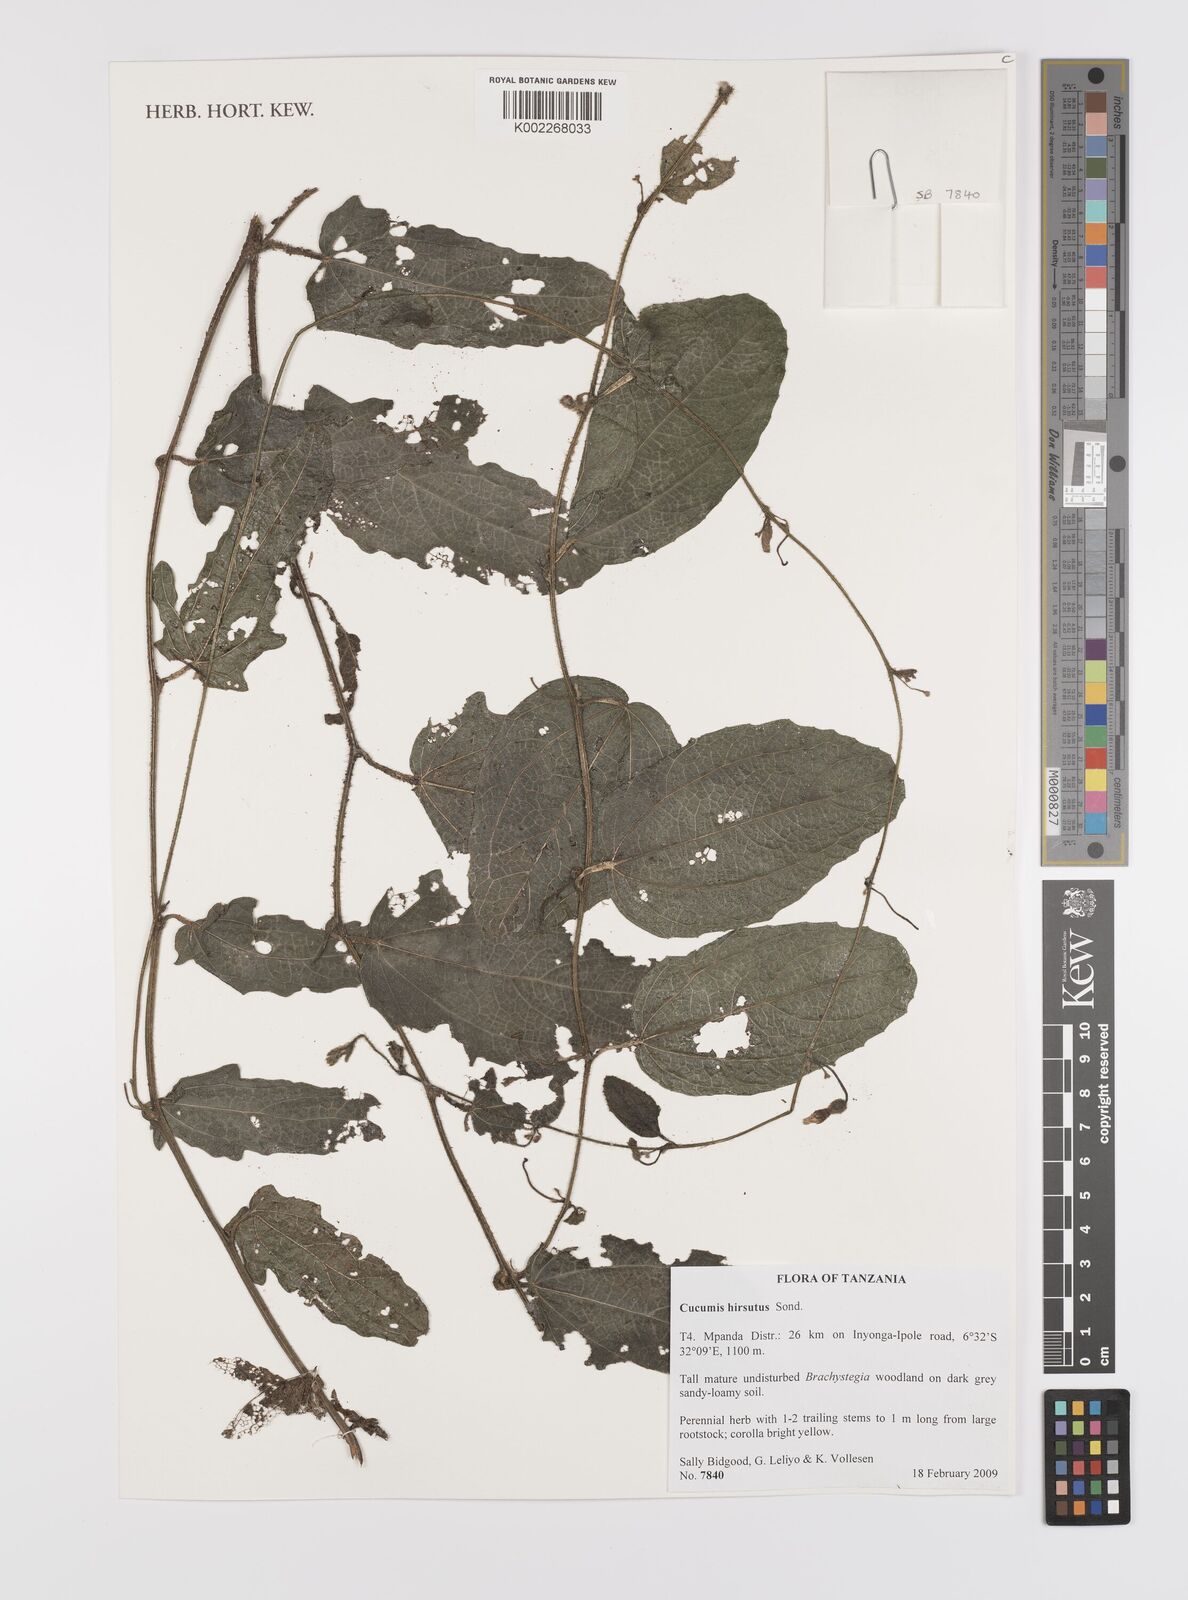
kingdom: Plantae
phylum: Tracheophyta
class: Magnoliopsida
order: Cucurbitales
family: Cucurbitaceae
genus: Cucumis
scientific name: Cucumis hirsutus
